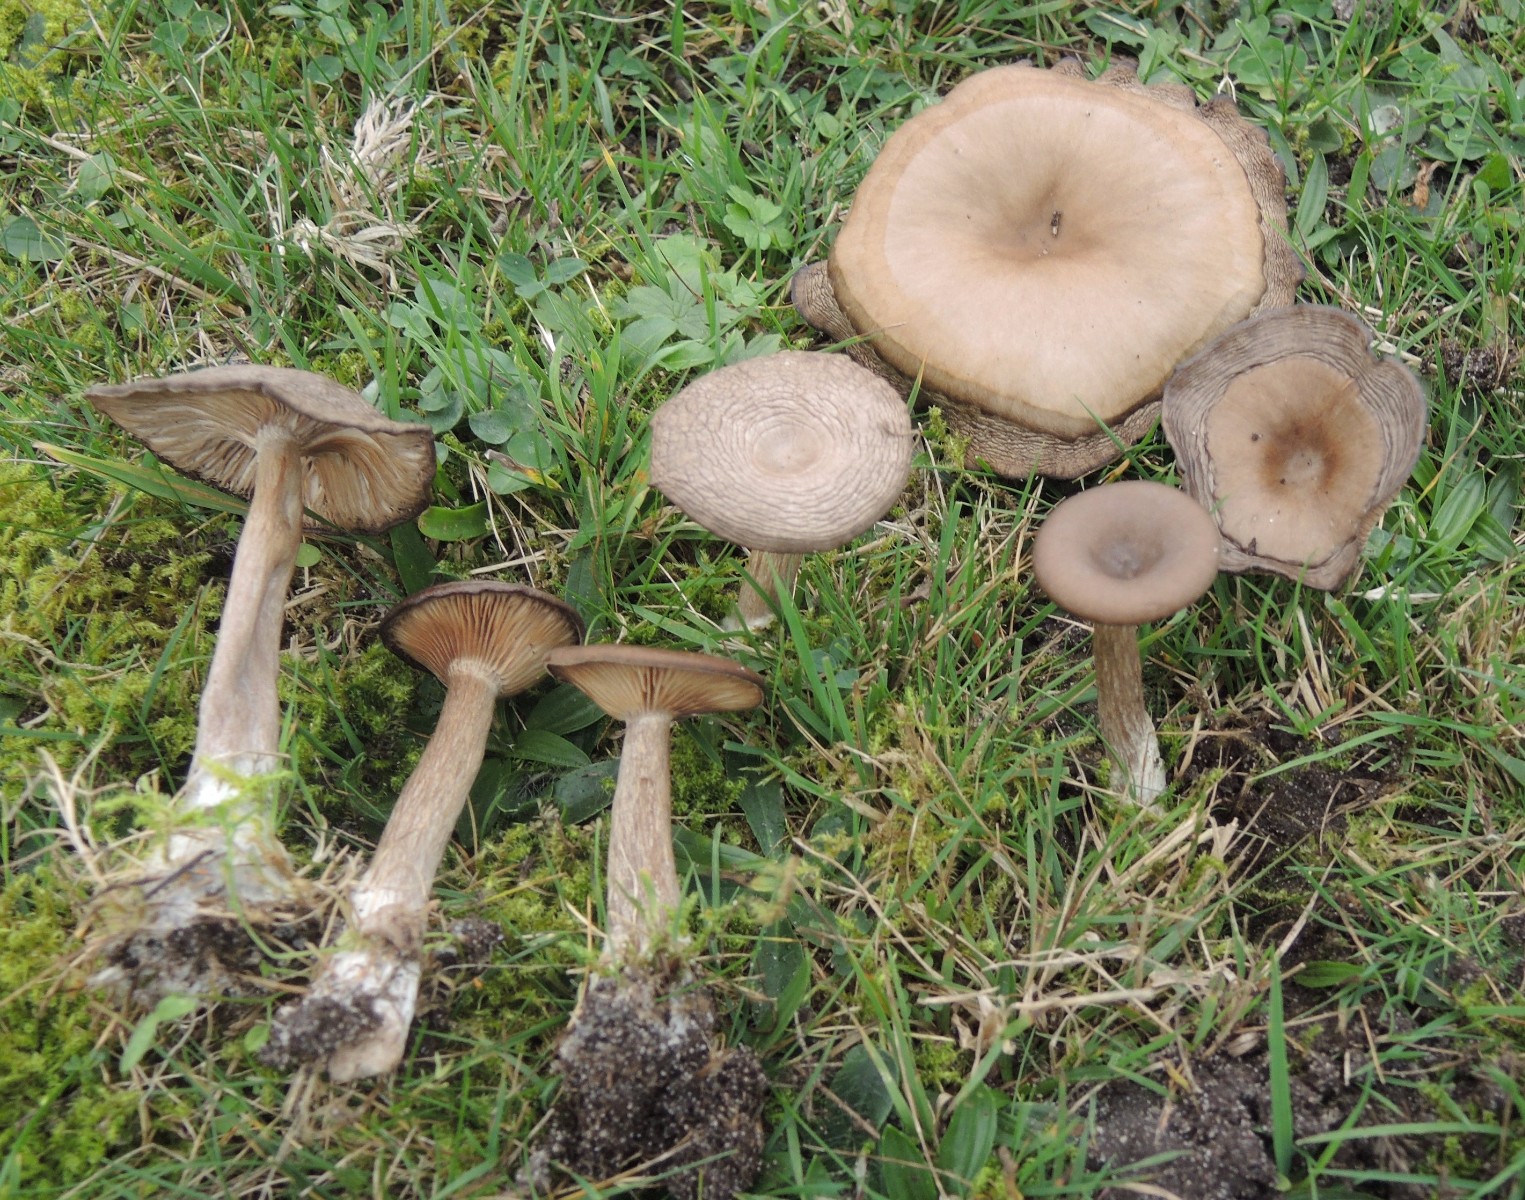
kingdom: Fungi
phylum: Basidiomycota
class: Agaricomycetes
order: Agaricales
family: Pseudoclitocybaceae
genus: Pseudoclitocybe
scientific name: Pseudoclitocybe expallens
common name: lille bægertragthat
